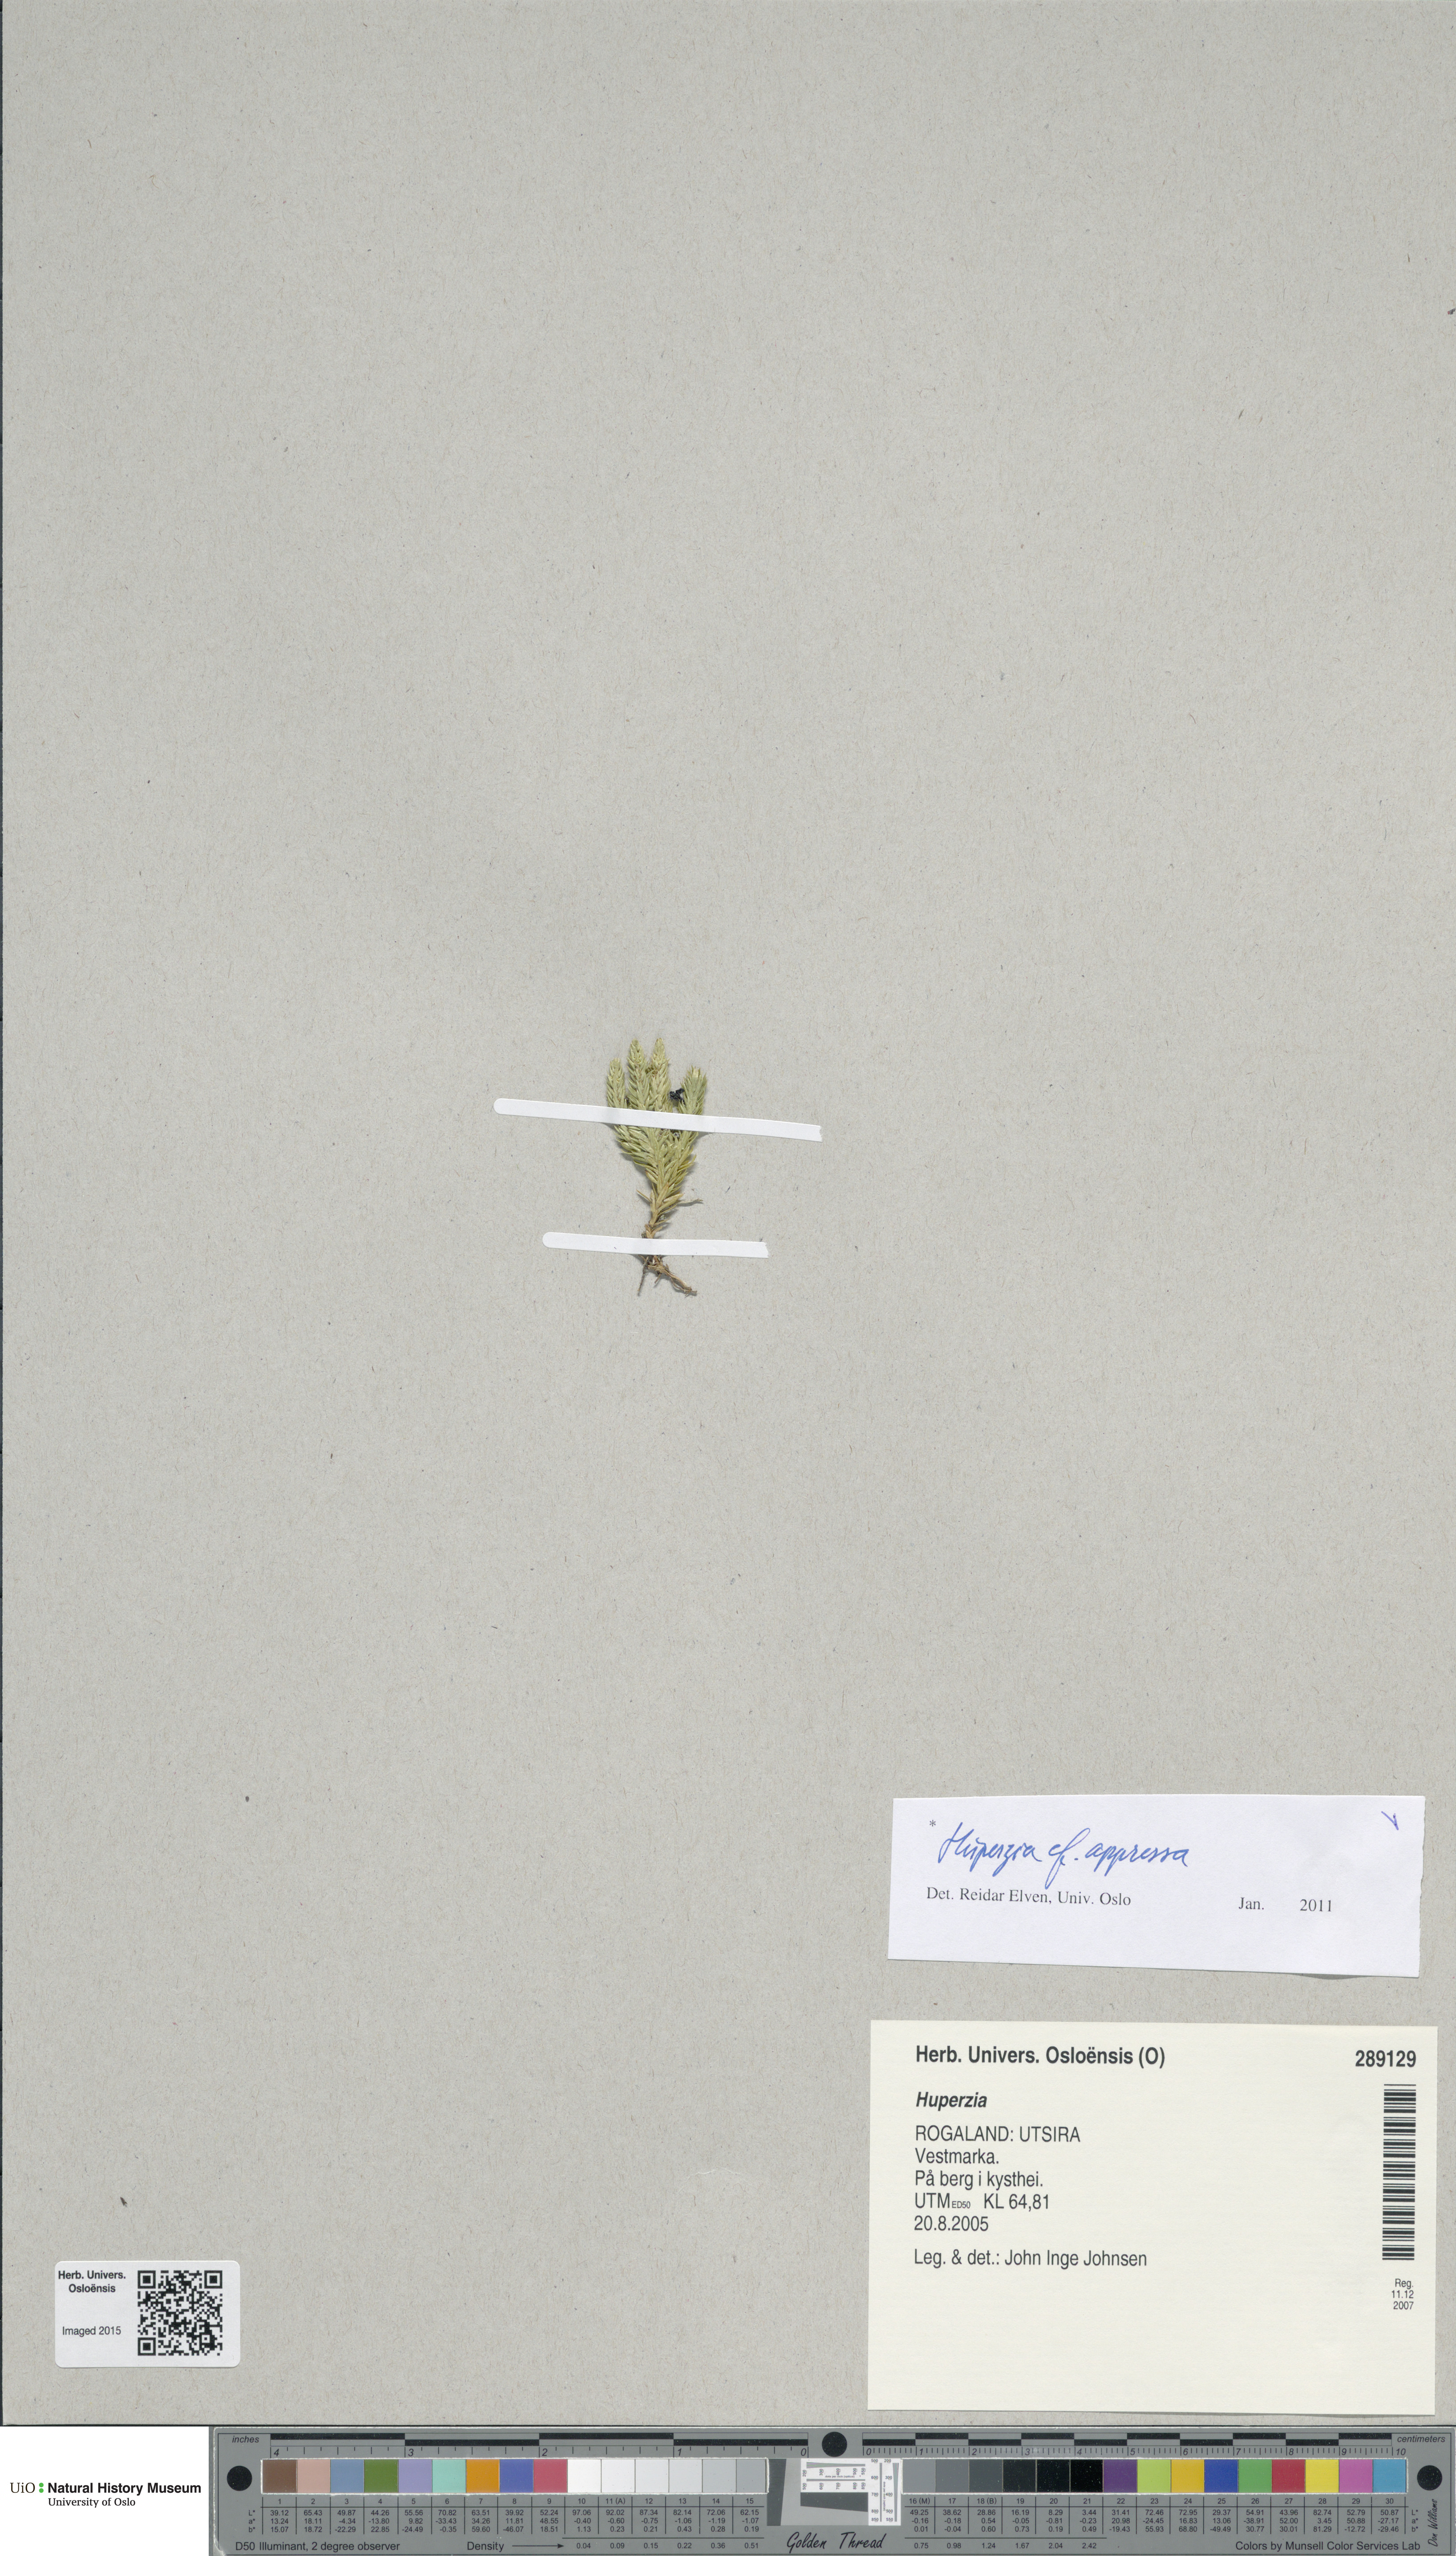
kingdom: Plantae
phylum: Tracheophyta
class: Lycopodiopsida
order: Lycopodiales
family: Lycopodiaceae
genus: Huperzia
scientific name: Huperzia selago
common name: Northern firmoss
